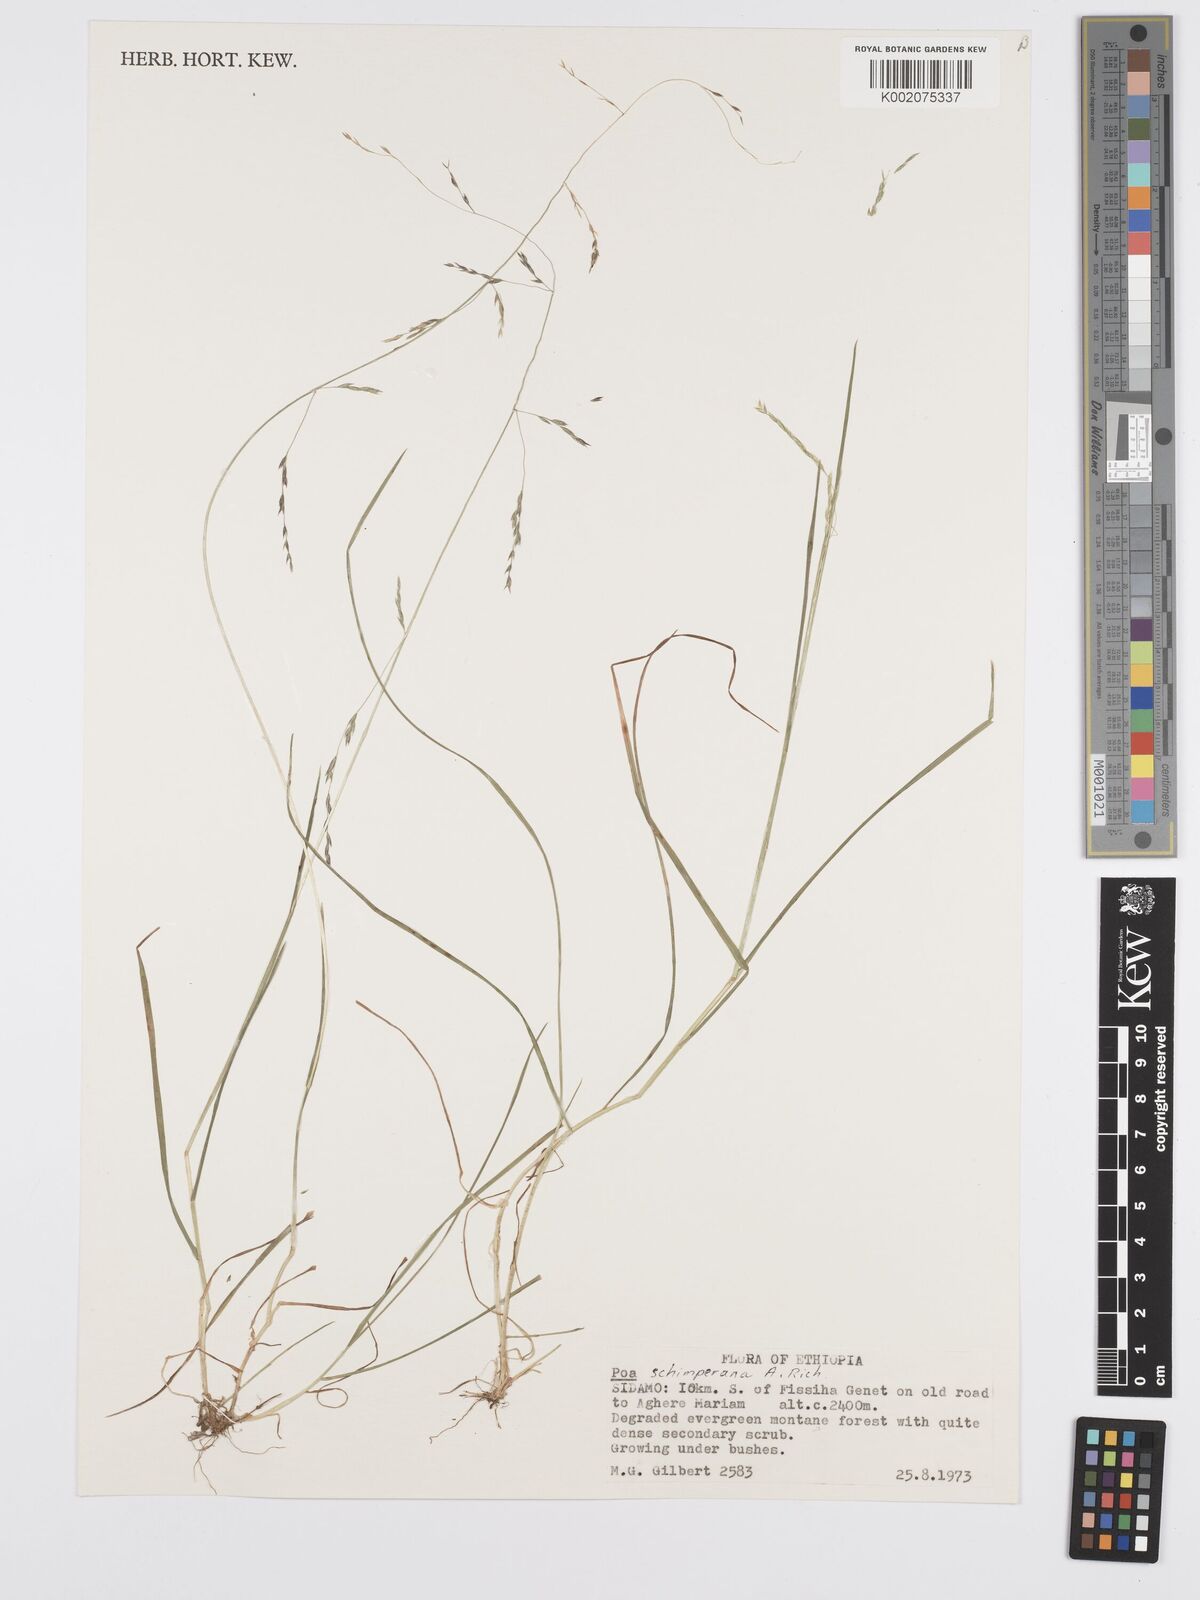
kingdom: Plantae
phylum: Tracheophyta
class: Liliopsida
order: Poales
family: Poaceae
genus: Poa
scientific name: Poa schimperiana
